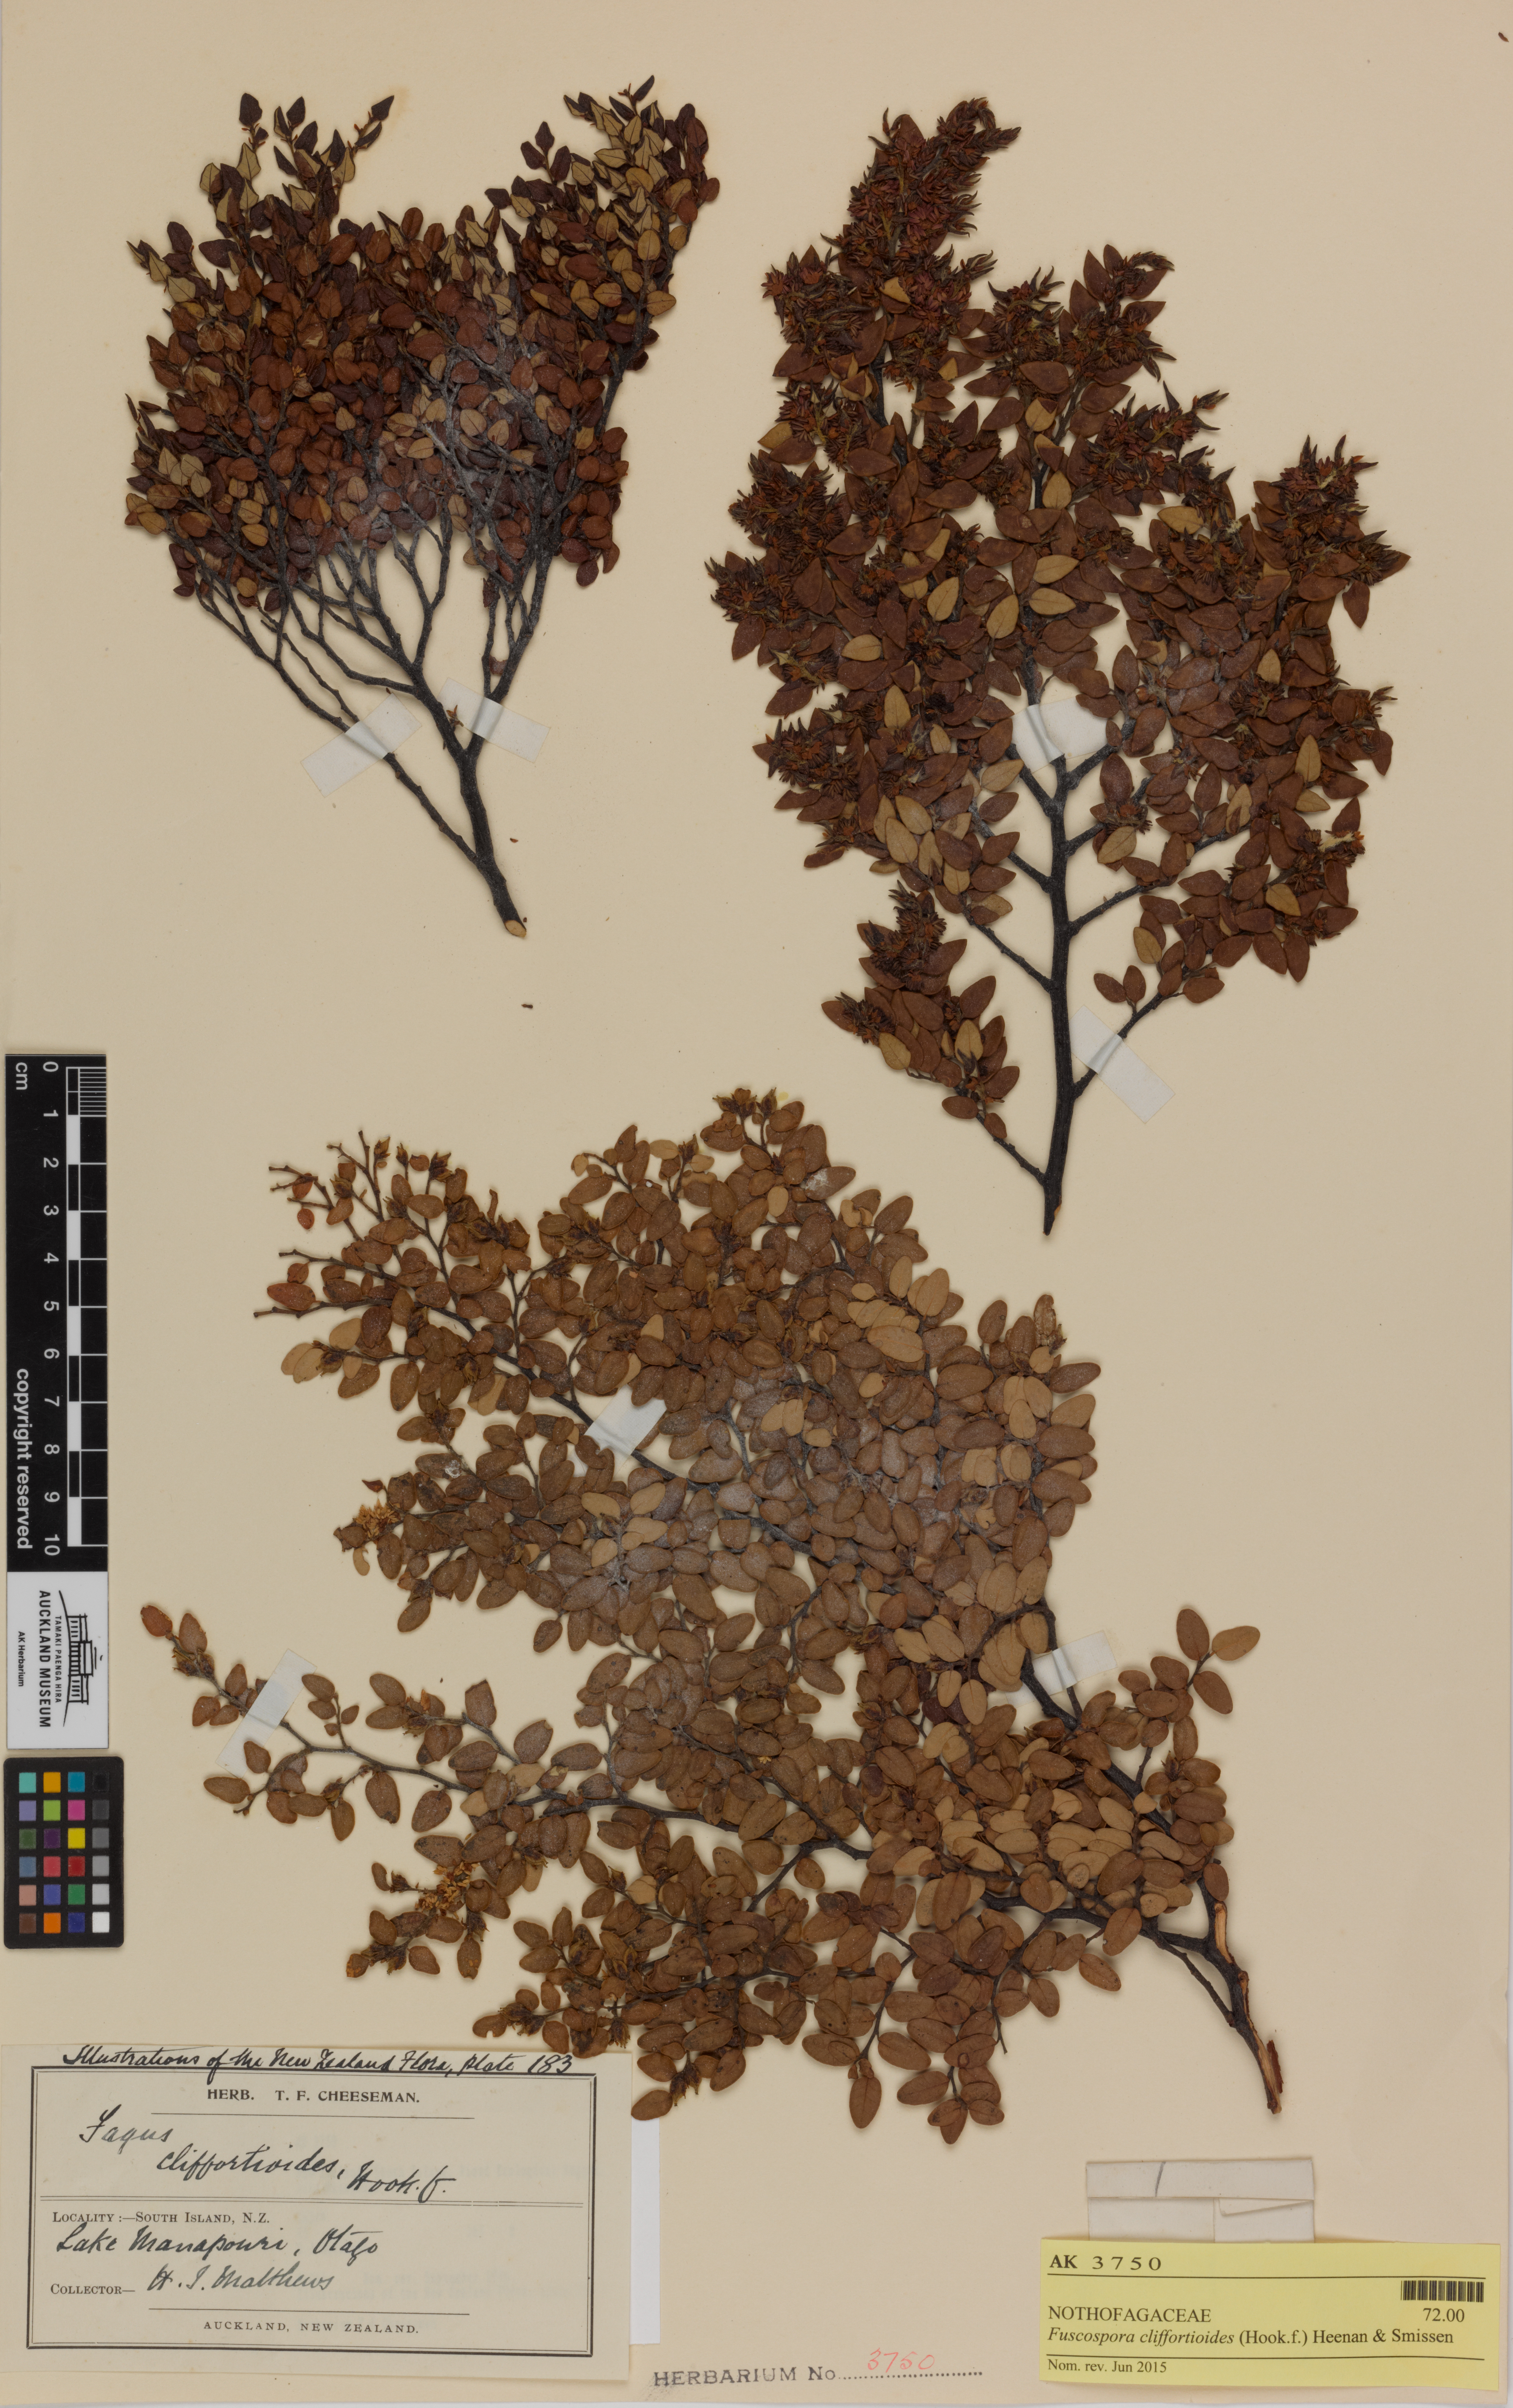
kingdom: Plantae
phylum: Tracheophyta
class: Magnoliopsida
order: Fagales
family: Nothofagaceae
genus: Nothofagus
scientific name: Nothofagus cliffortioides
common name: Mountain beech
